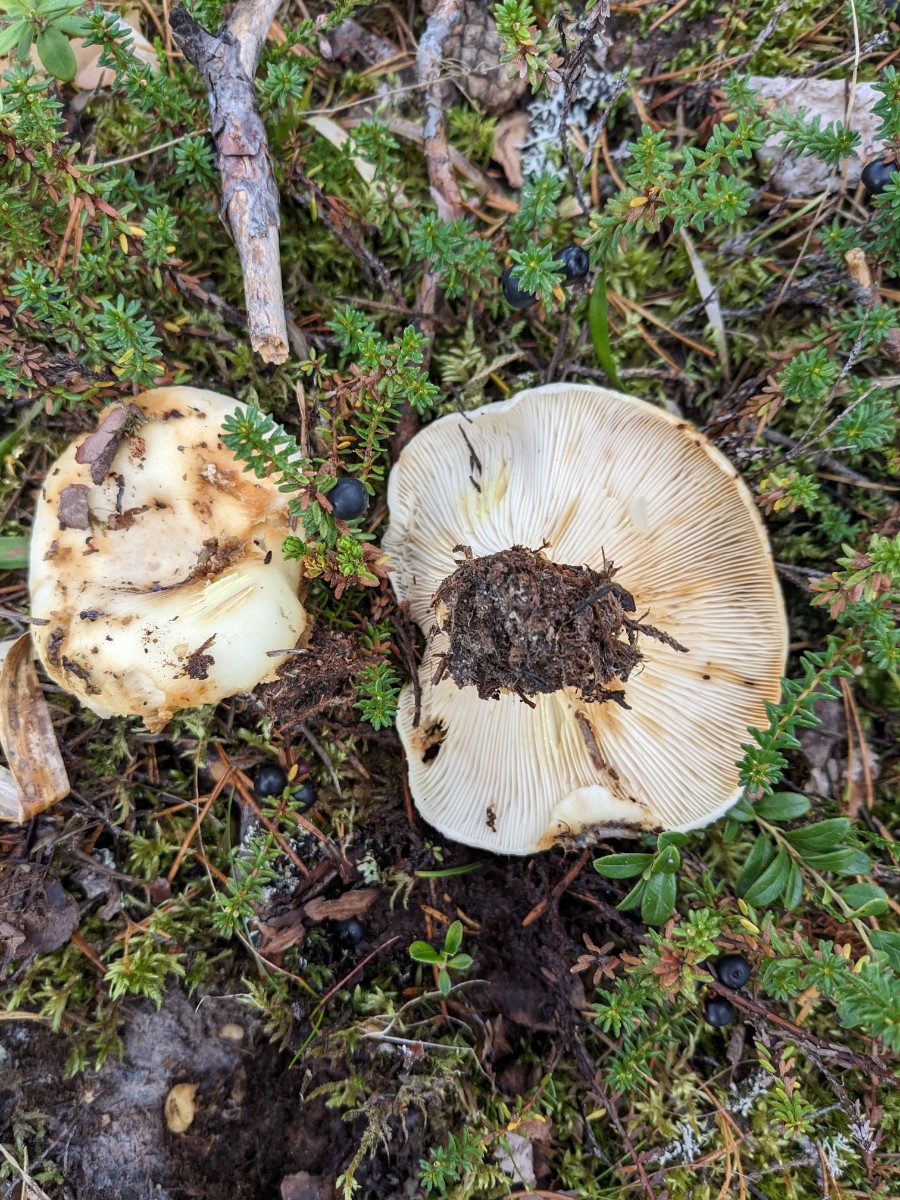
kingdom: Fungi
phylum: Basidiomycota
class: Agaricomycetes
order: Russulales
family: Russulaceae
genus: Lactarius
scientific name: Lactarius aquizonatus
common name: vandbæltet mælkehat
